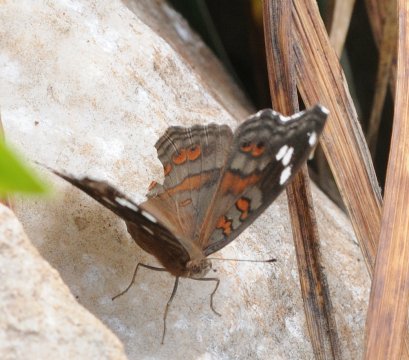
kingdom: Animalia
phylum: Arthropoda
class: Insecta
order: Lepidoptera
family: Nymphalidae
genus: Junonia
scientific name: Junonia natalica
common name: Natal Pansy
